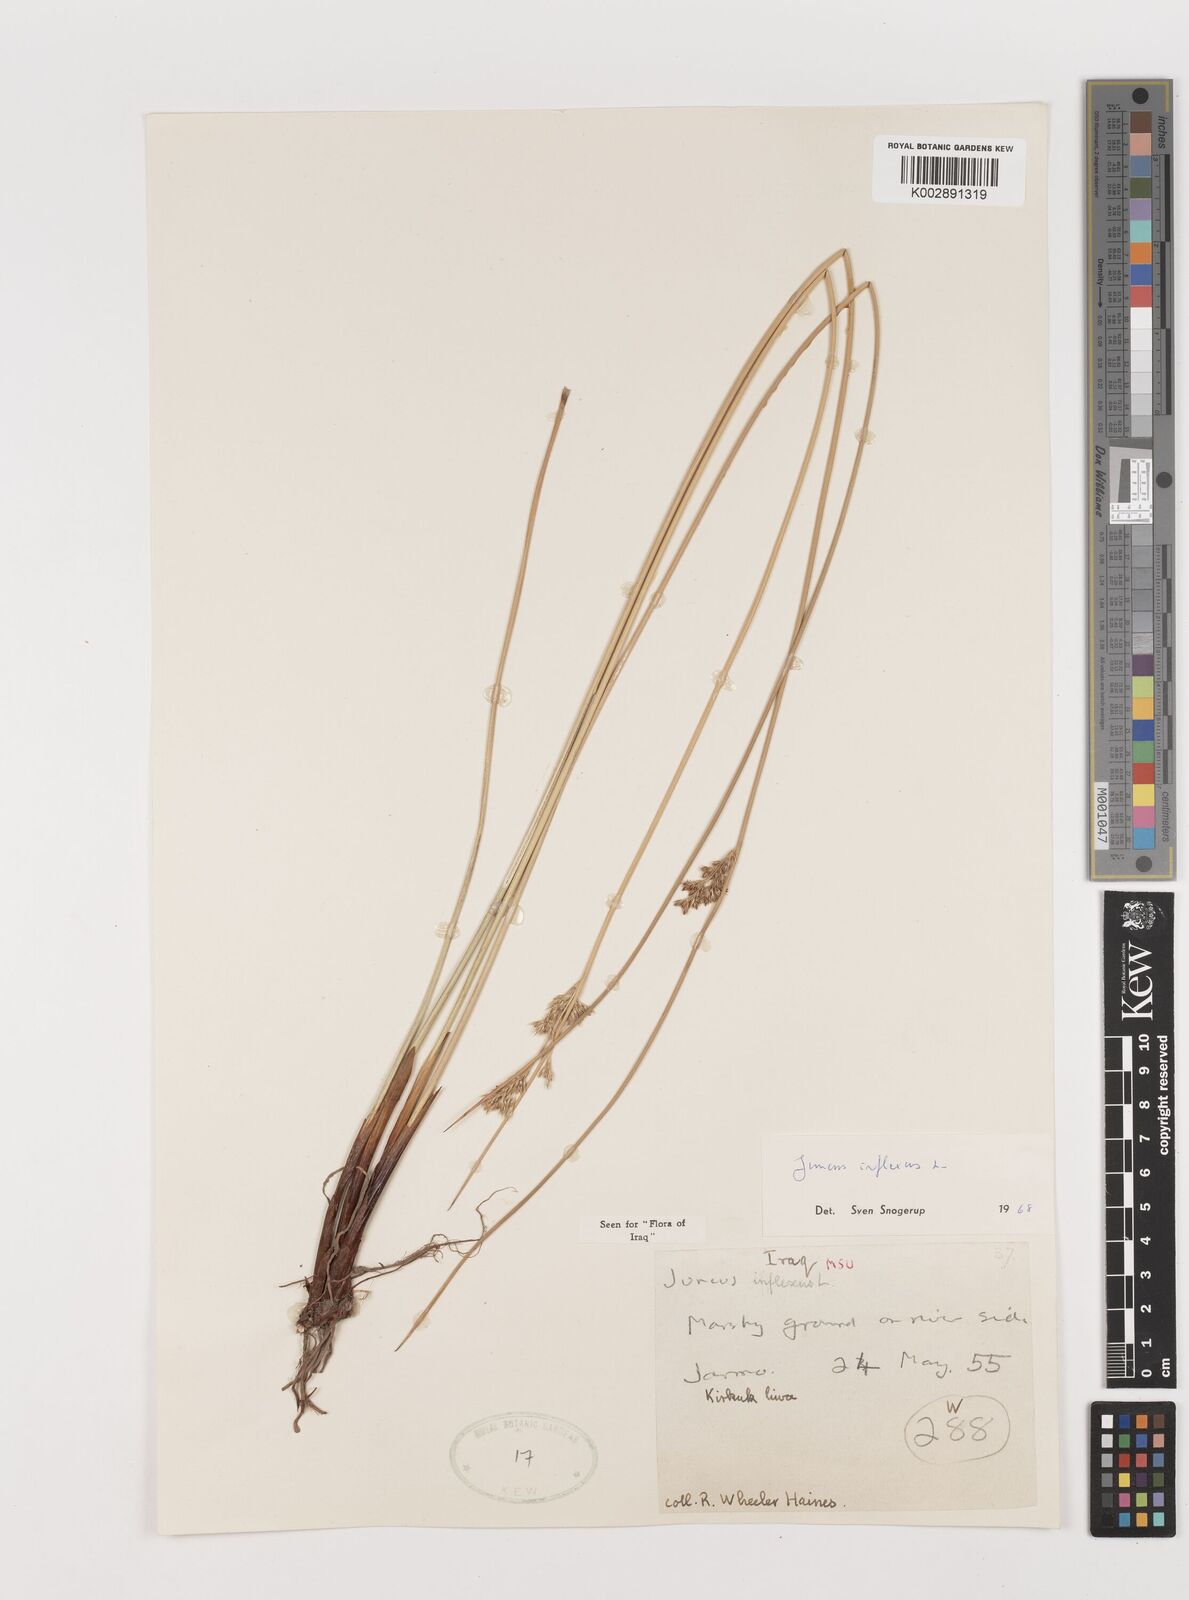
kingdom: Plantae
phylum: Tracheophyta
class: Liliopsida
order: Poales
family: Juncaceae
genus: Juncus
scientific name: Juncus inflexus
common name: Hard rush
